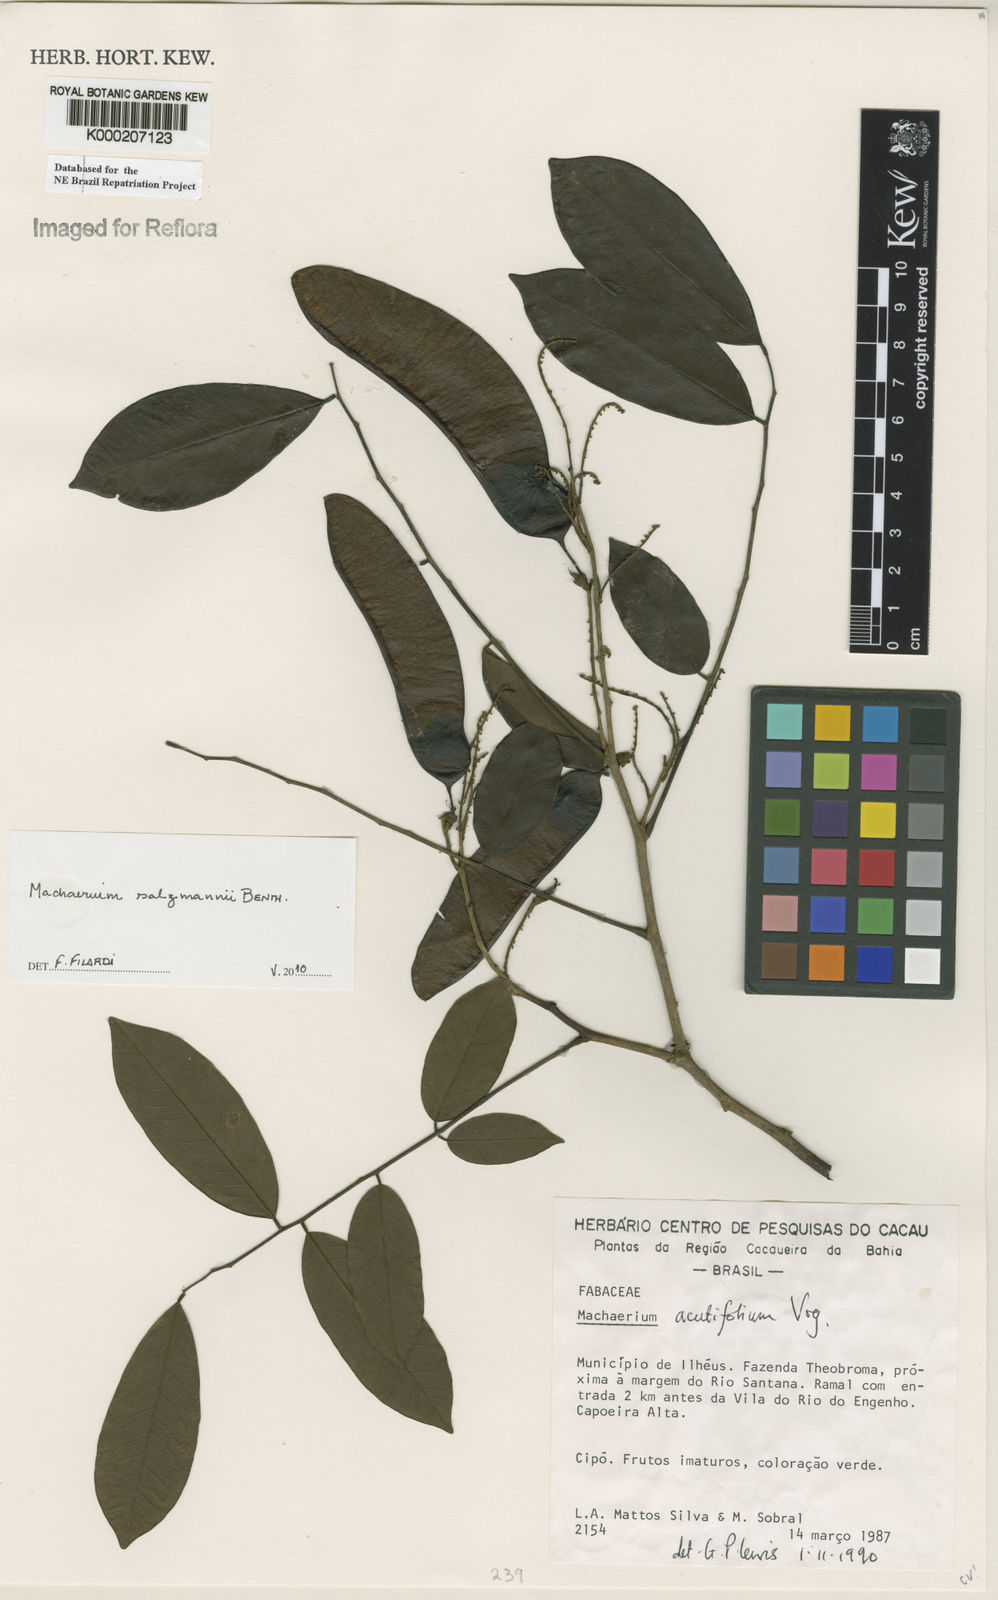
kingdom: Plantae
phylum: Tracheophyta
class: Magnoliopsida
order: Fabales
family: Fabaceae
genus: Machaerium
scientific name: Machaerium acutifolium
